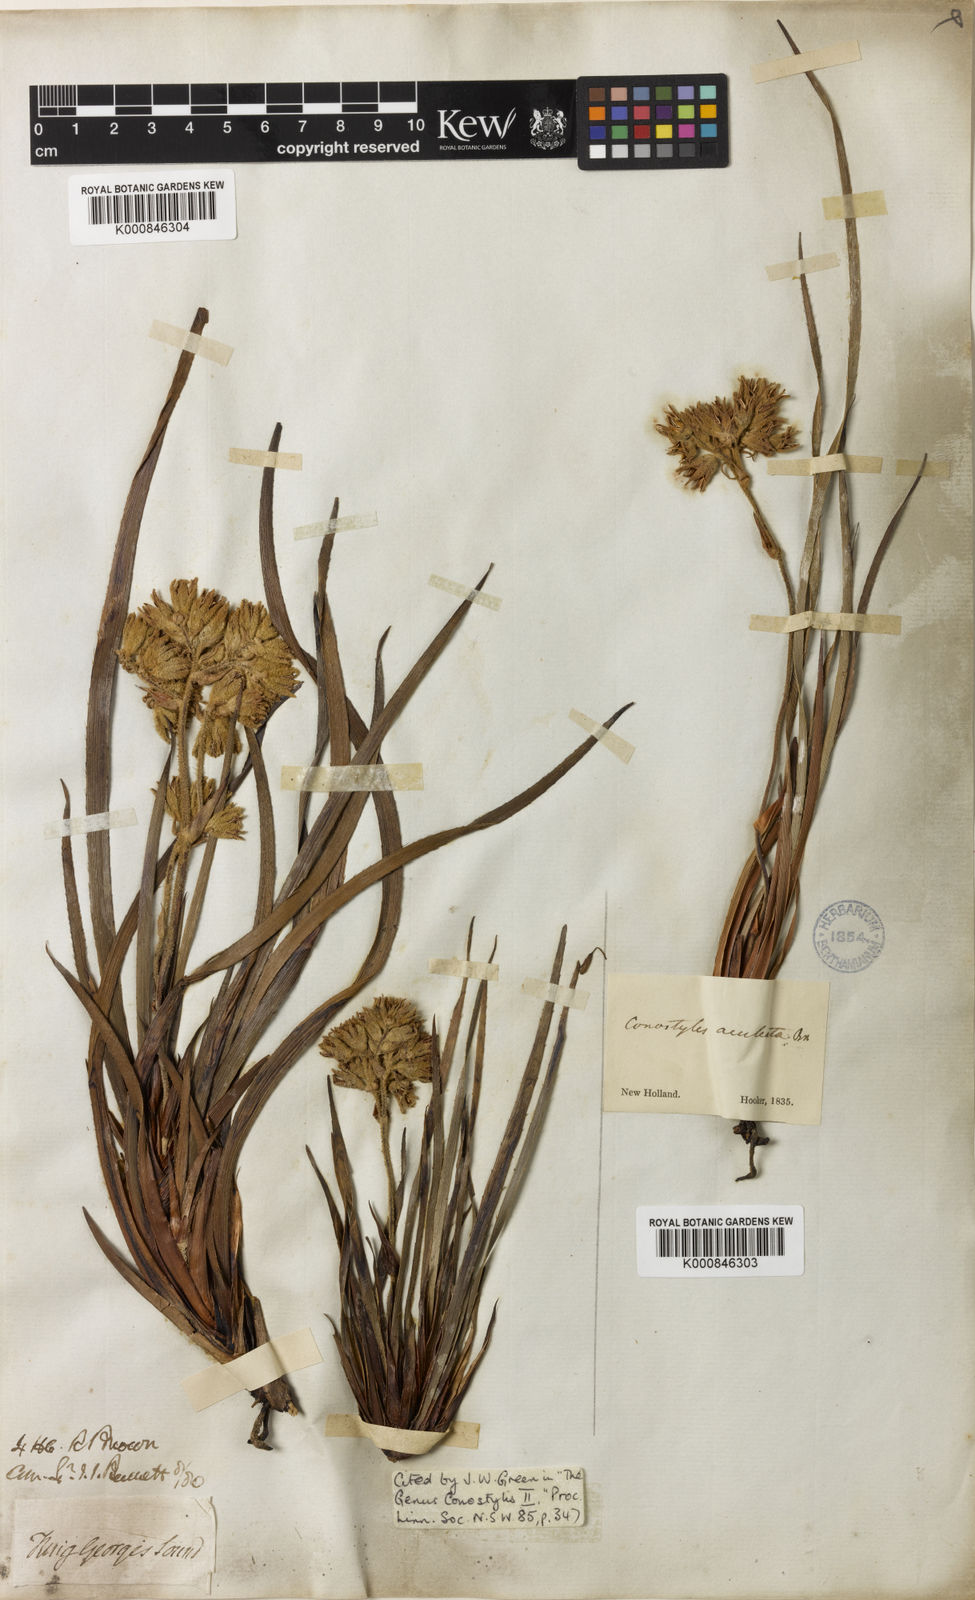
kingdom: Plantae
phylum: Tracheophyta
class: Liliopsida
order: Commelinales
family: Haemodoraceae
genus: Conostylis
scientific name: Conostylis aculeata
